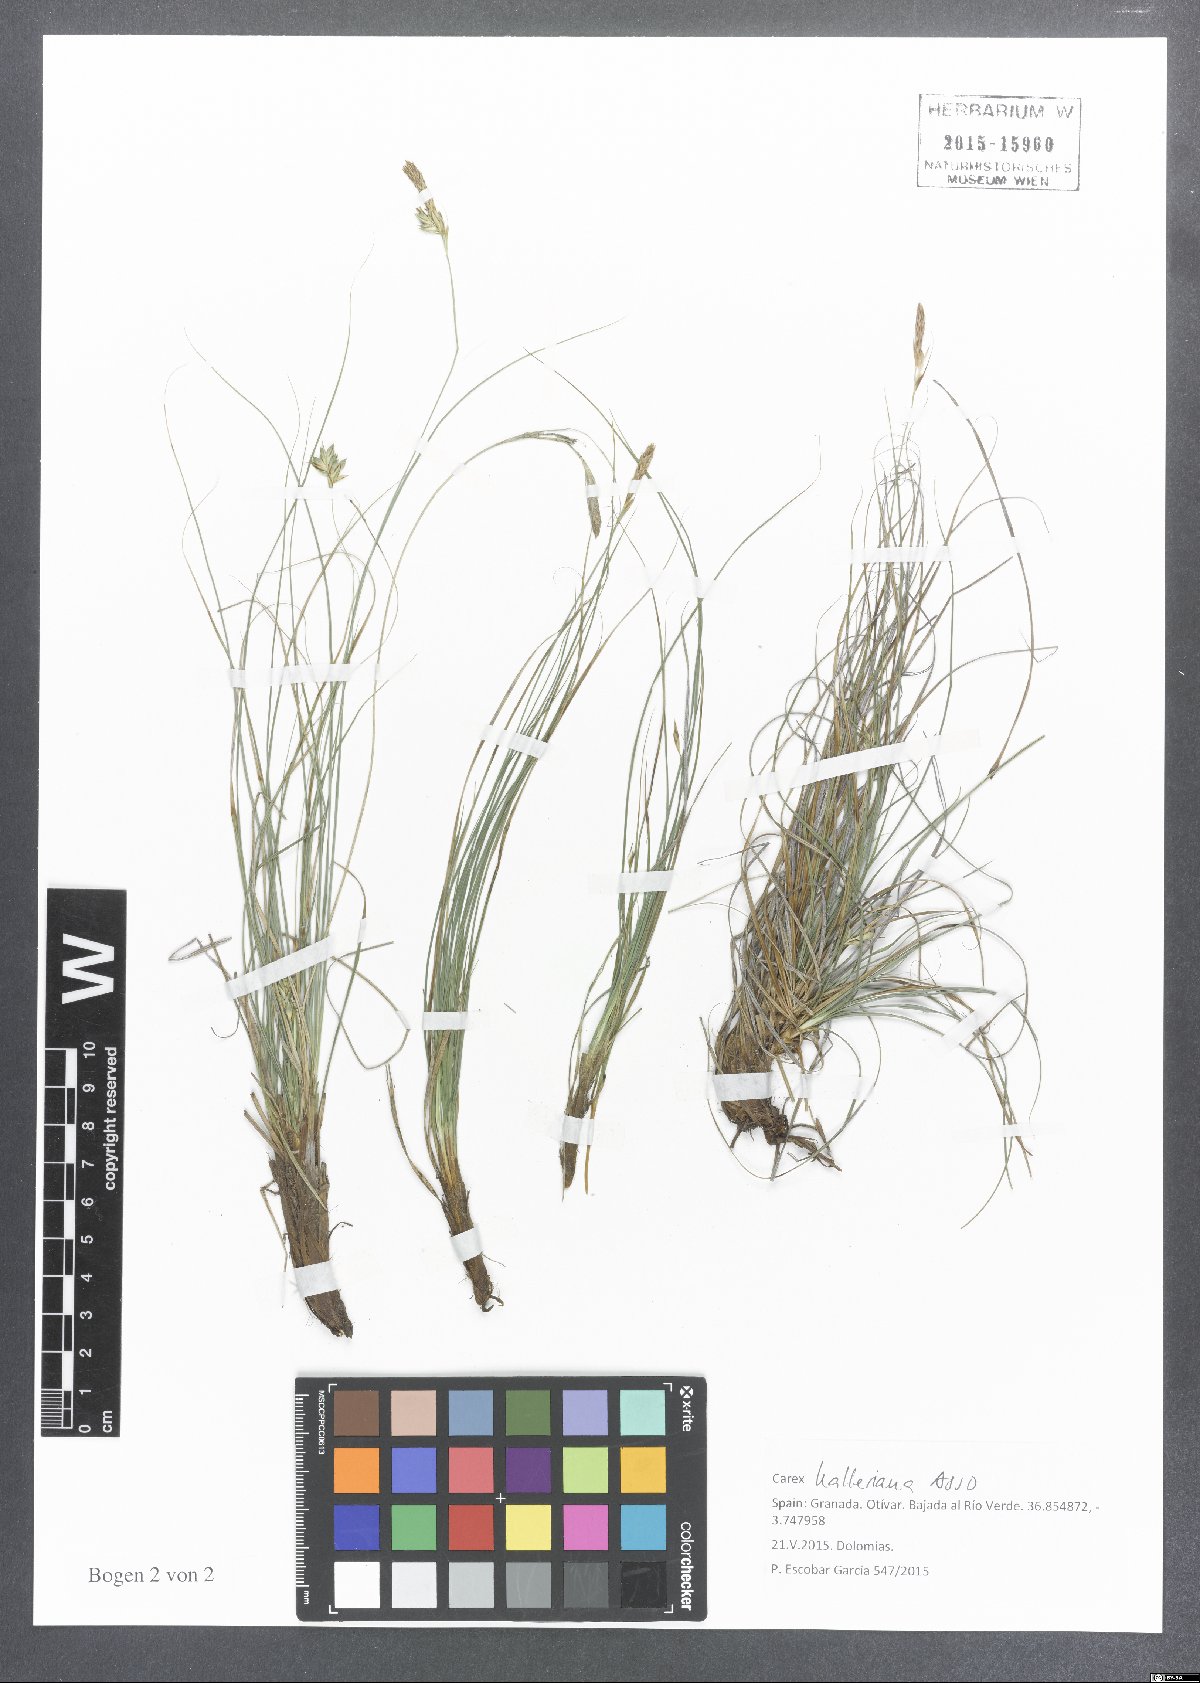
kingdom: Plantae
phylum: Tracheophyta
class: Liliopsida
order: Poales
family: Cyperaceae
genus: Carex
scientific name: Carex halleriana
